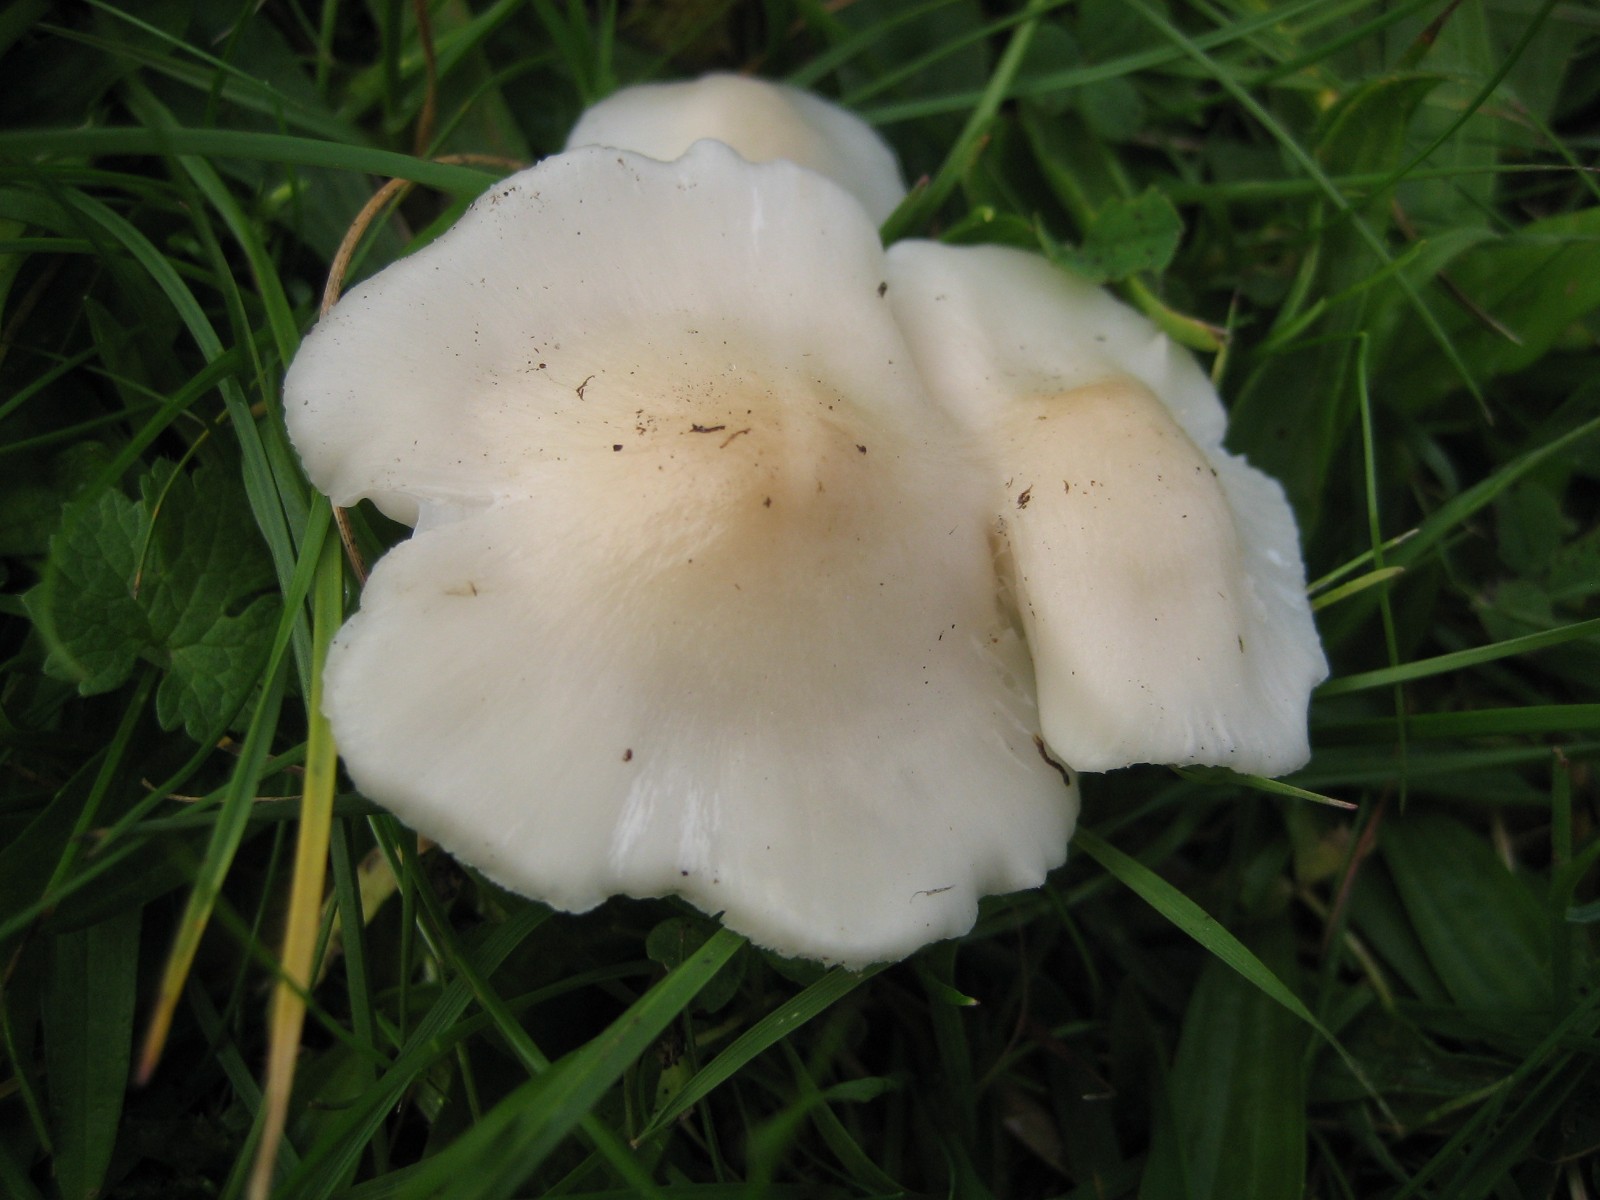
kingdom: Fungi
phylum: Basidiomycota
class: Agaricomycetes
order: Agaricales
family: Hygrophoraceae
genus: Cuphophyllus
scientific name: Cuphophyllus fornicatus
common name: gråbrun vokshat
